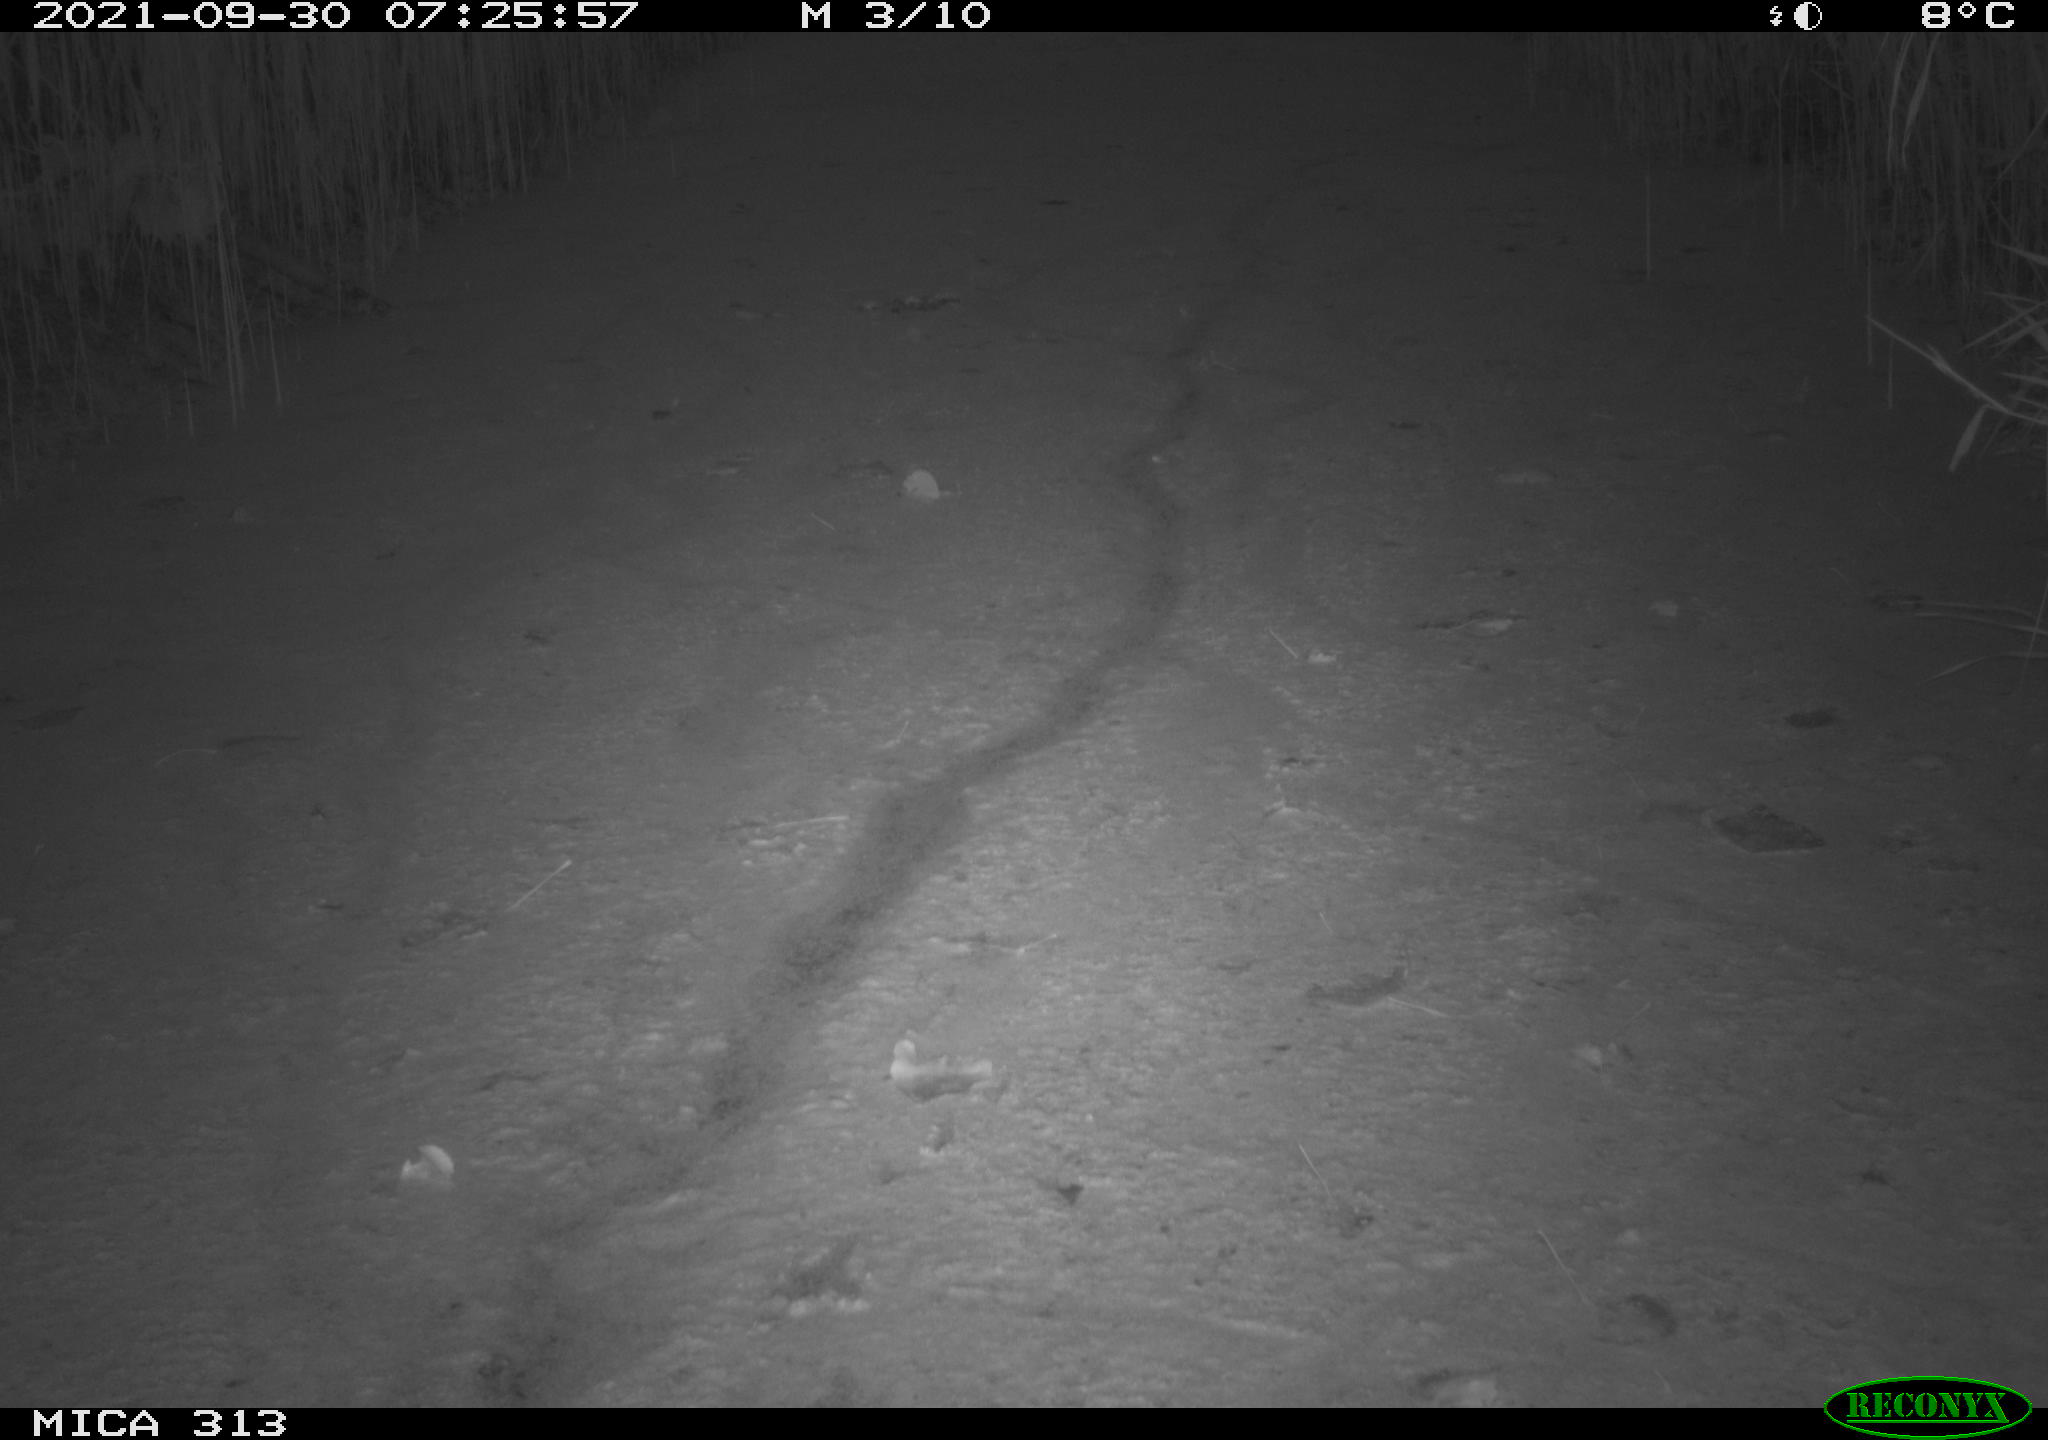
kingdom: Animalia
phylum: Chordata
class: Aves
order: Gruiformes
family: Rallidae
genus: Gallinula
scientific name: Gallinula chloropus
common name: Common moorhen
